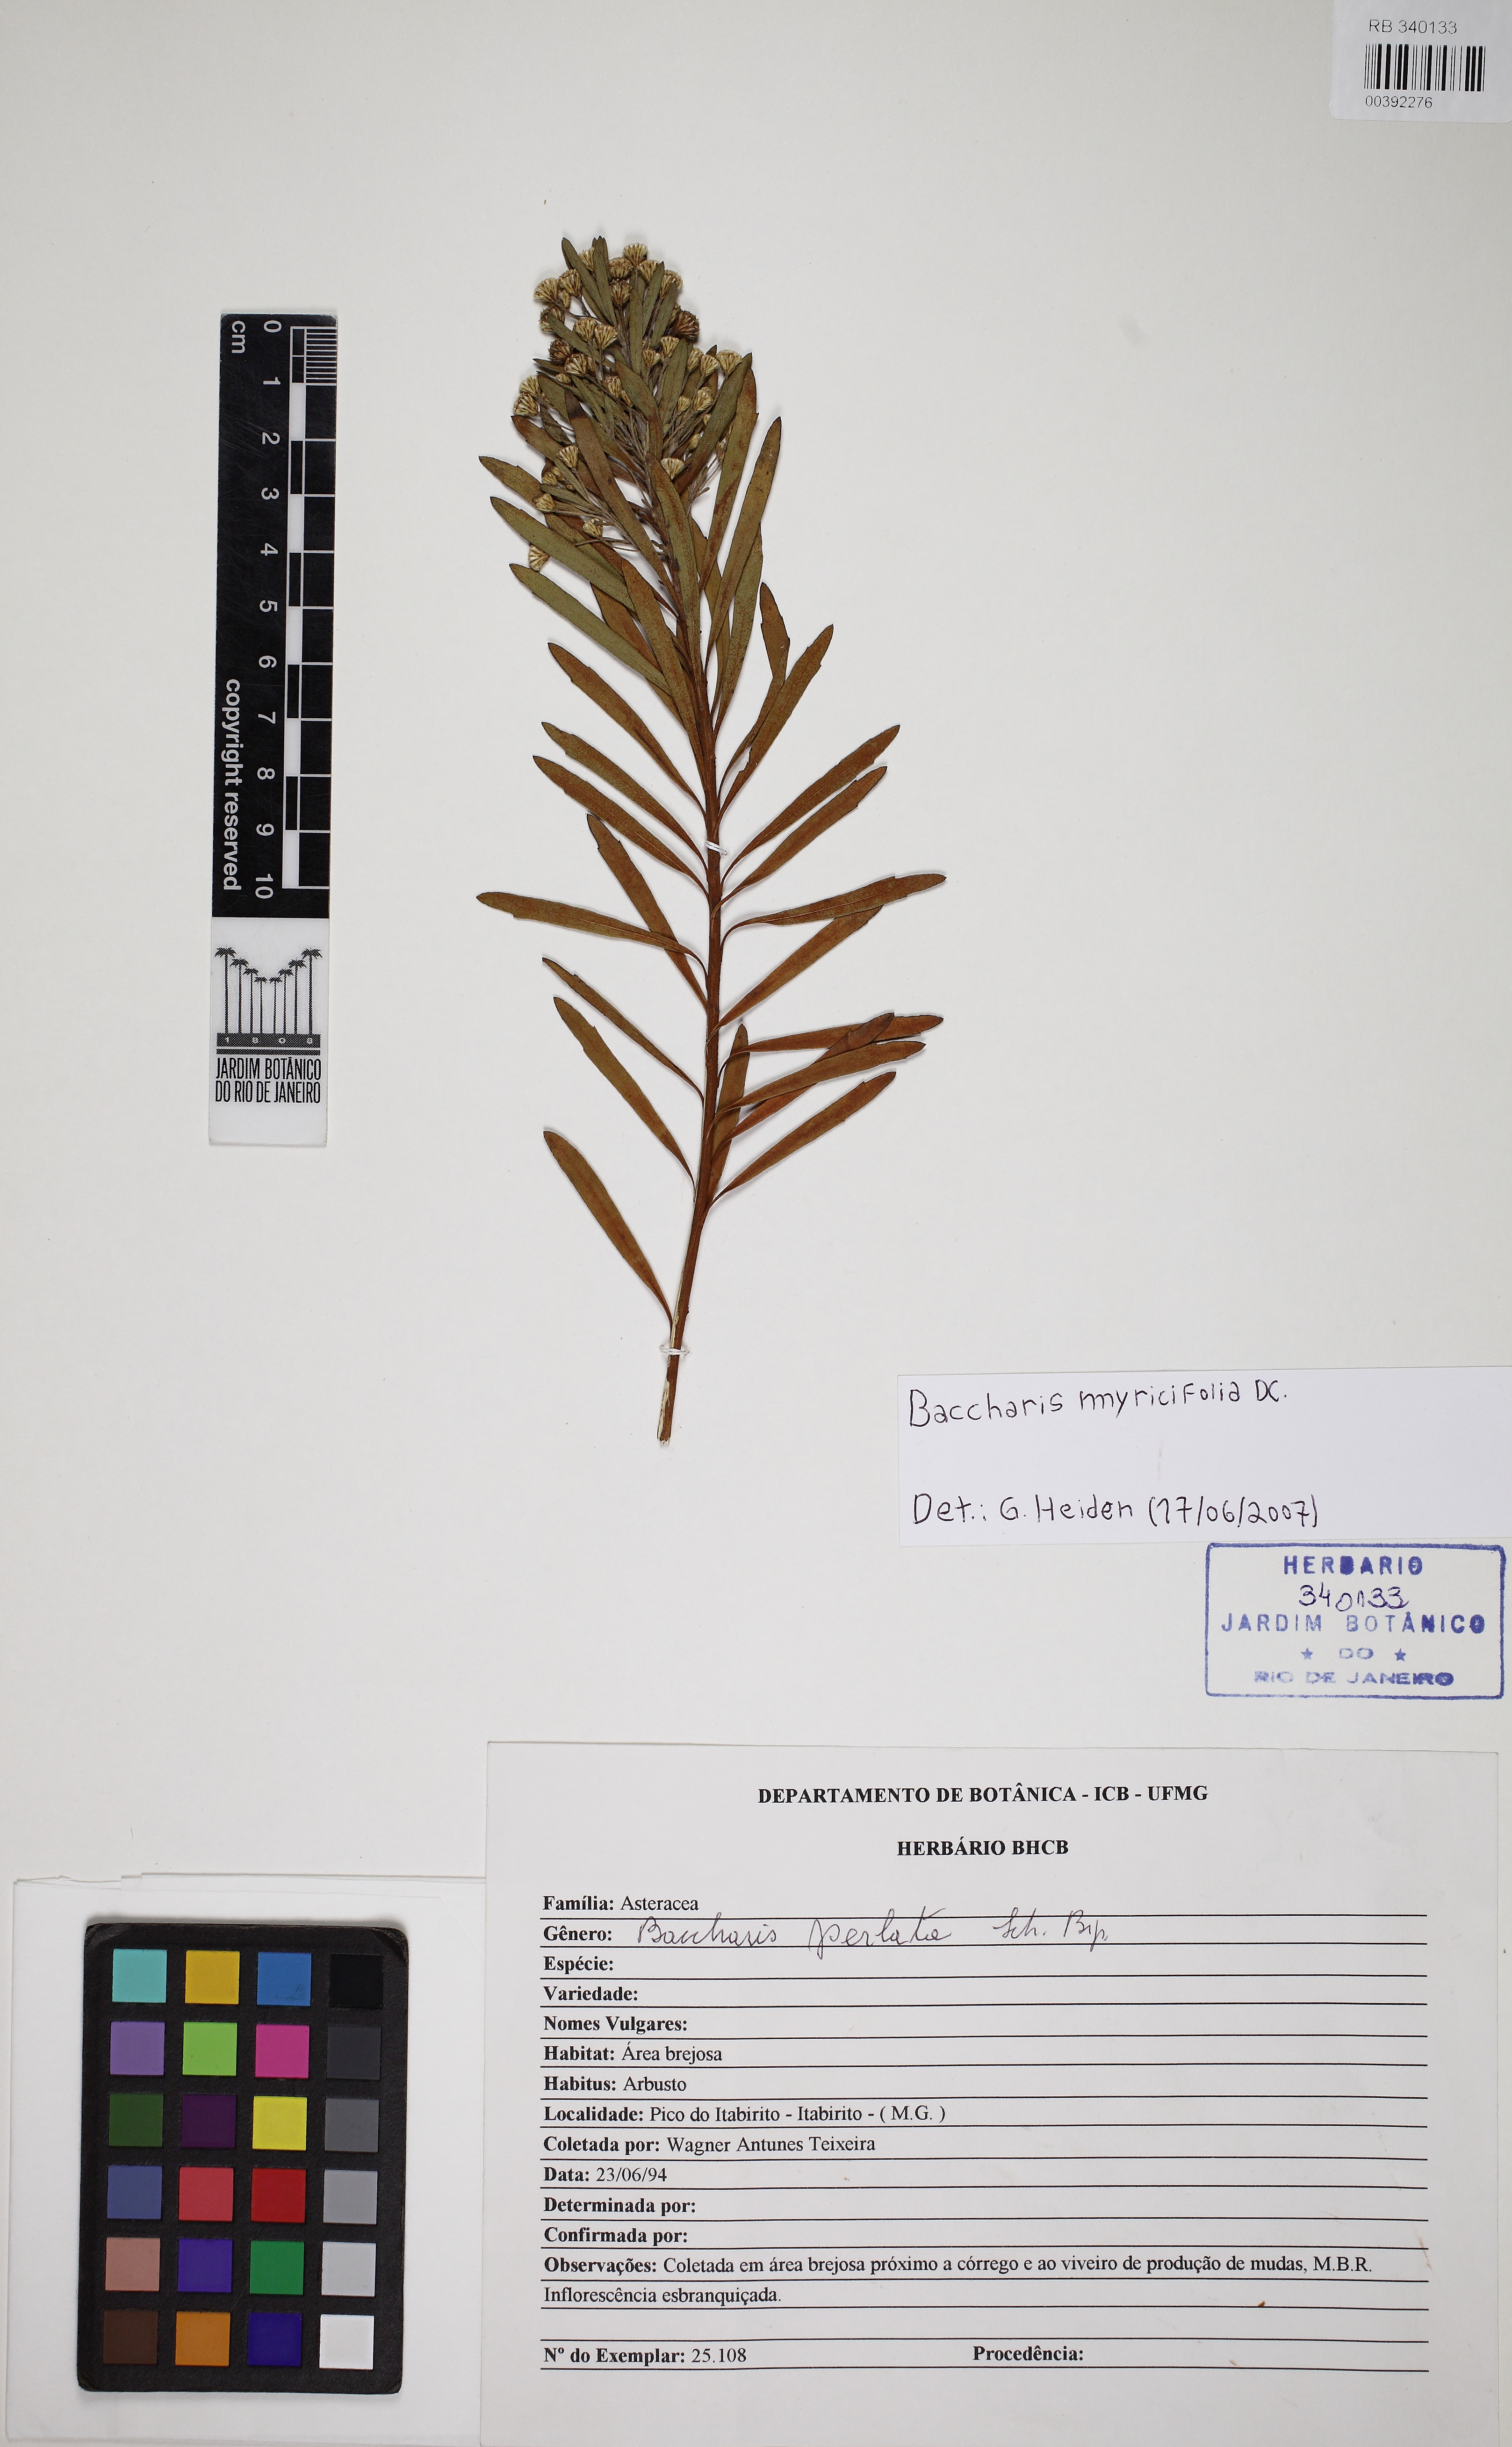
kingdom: Plantae
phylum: Tracheophyta
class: Magnoliopsida
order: Asterales
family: Asteraceae
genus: Baccharis
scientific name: Baccharis myricifolia
